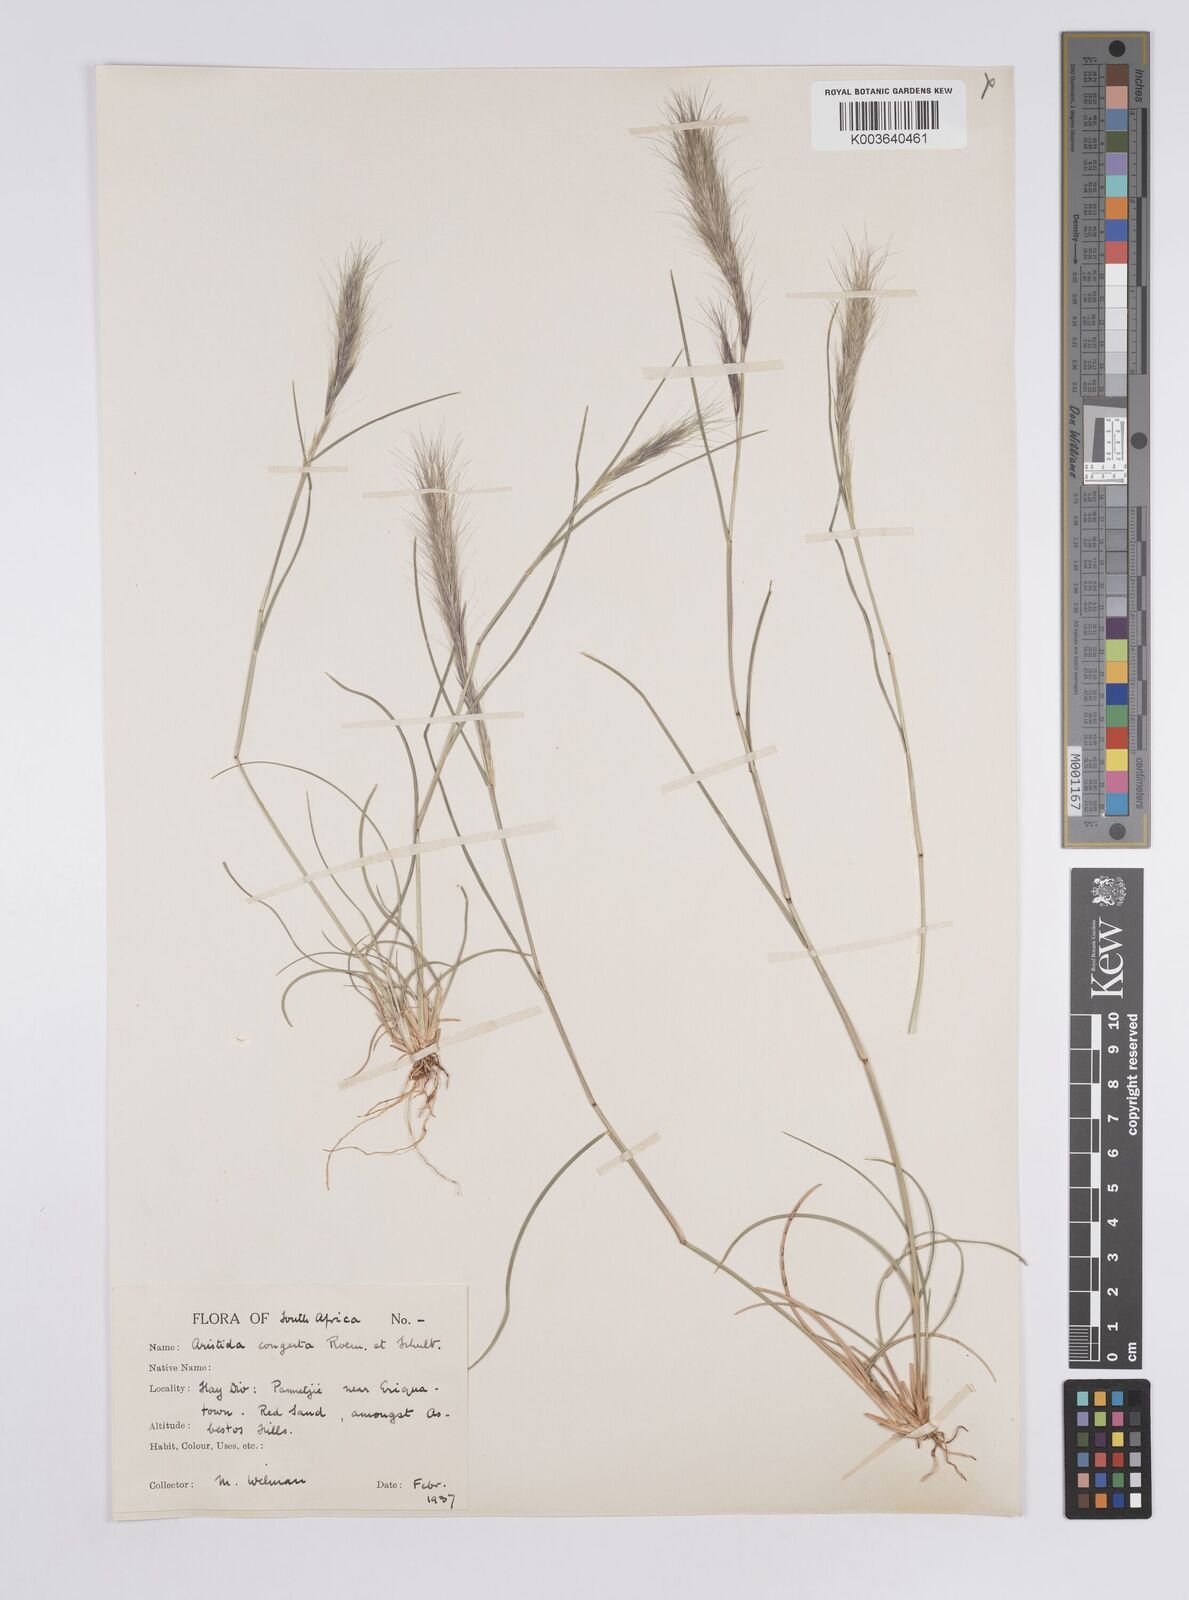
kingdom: Plantae
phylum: Tracheophyta
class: Liliopsida
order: Poales
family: Poaceae
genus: Aristida
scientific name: Aristida barbicollis
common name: Spreading prickle grass
